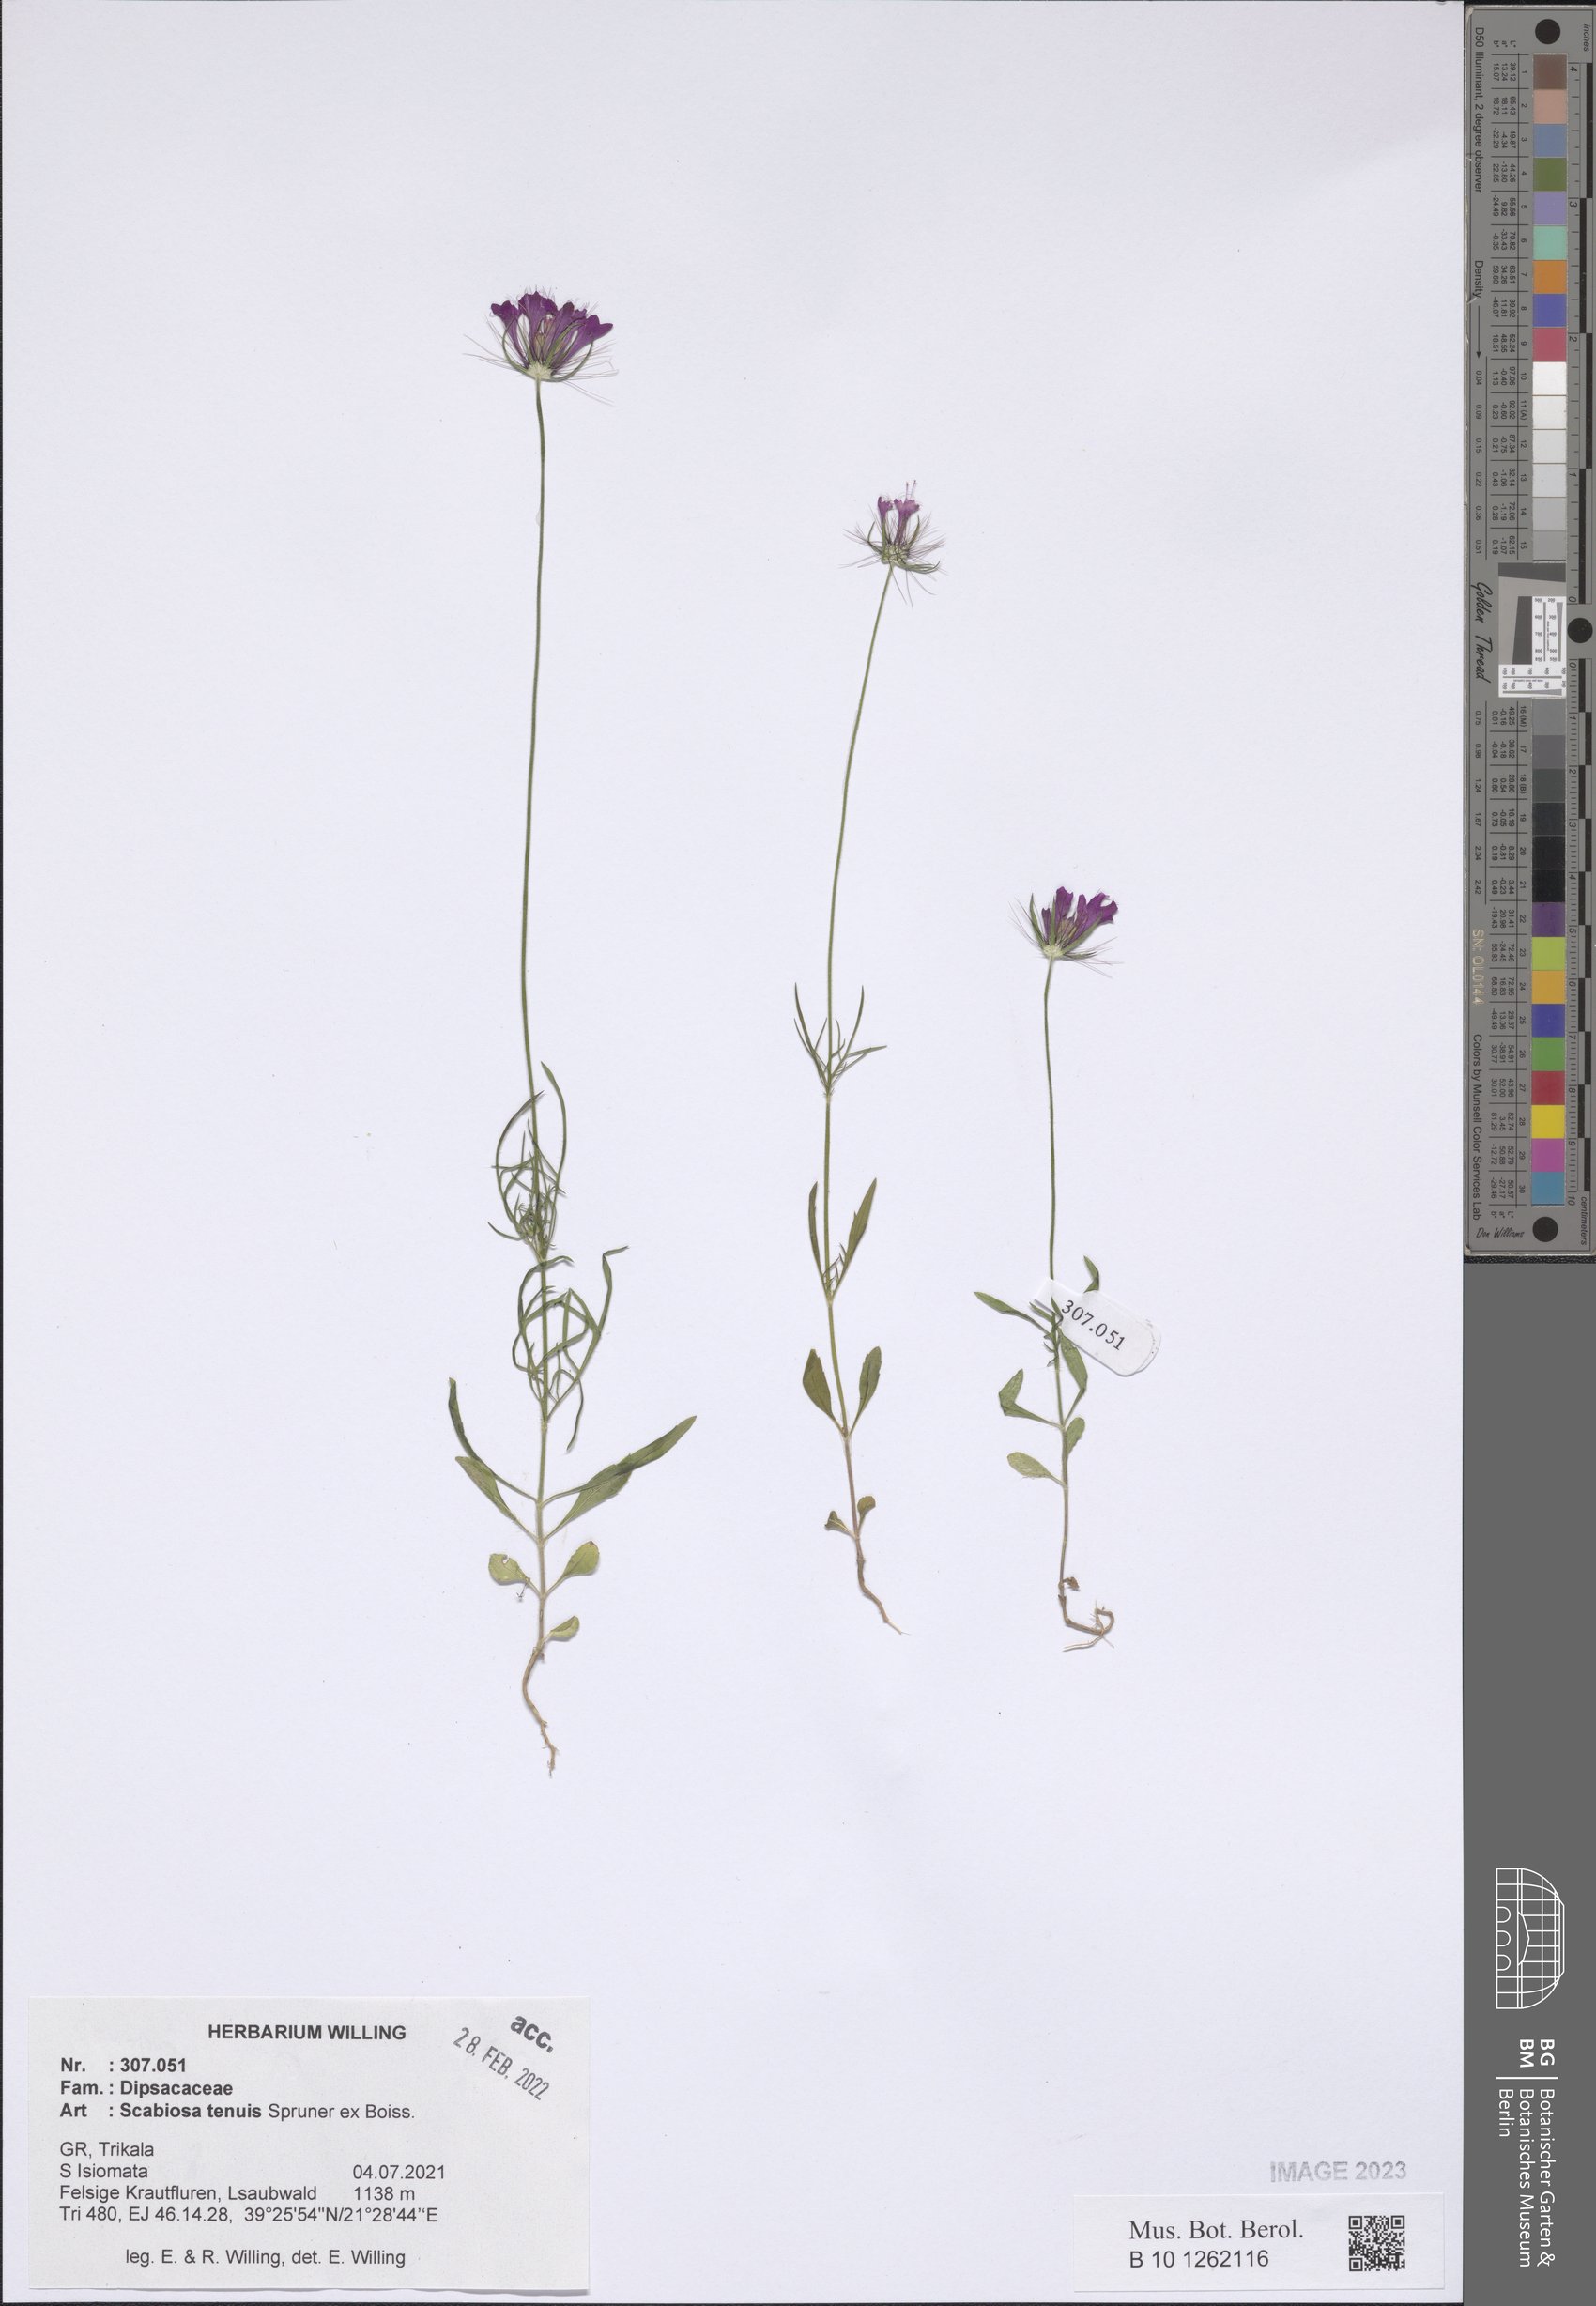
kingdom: Plantae
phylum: Tracheophyta
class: Magnoliopsida
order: Dipsacales
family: Caprifoliaceae
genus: Scabiosa
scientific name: Scabiosa tenuis
